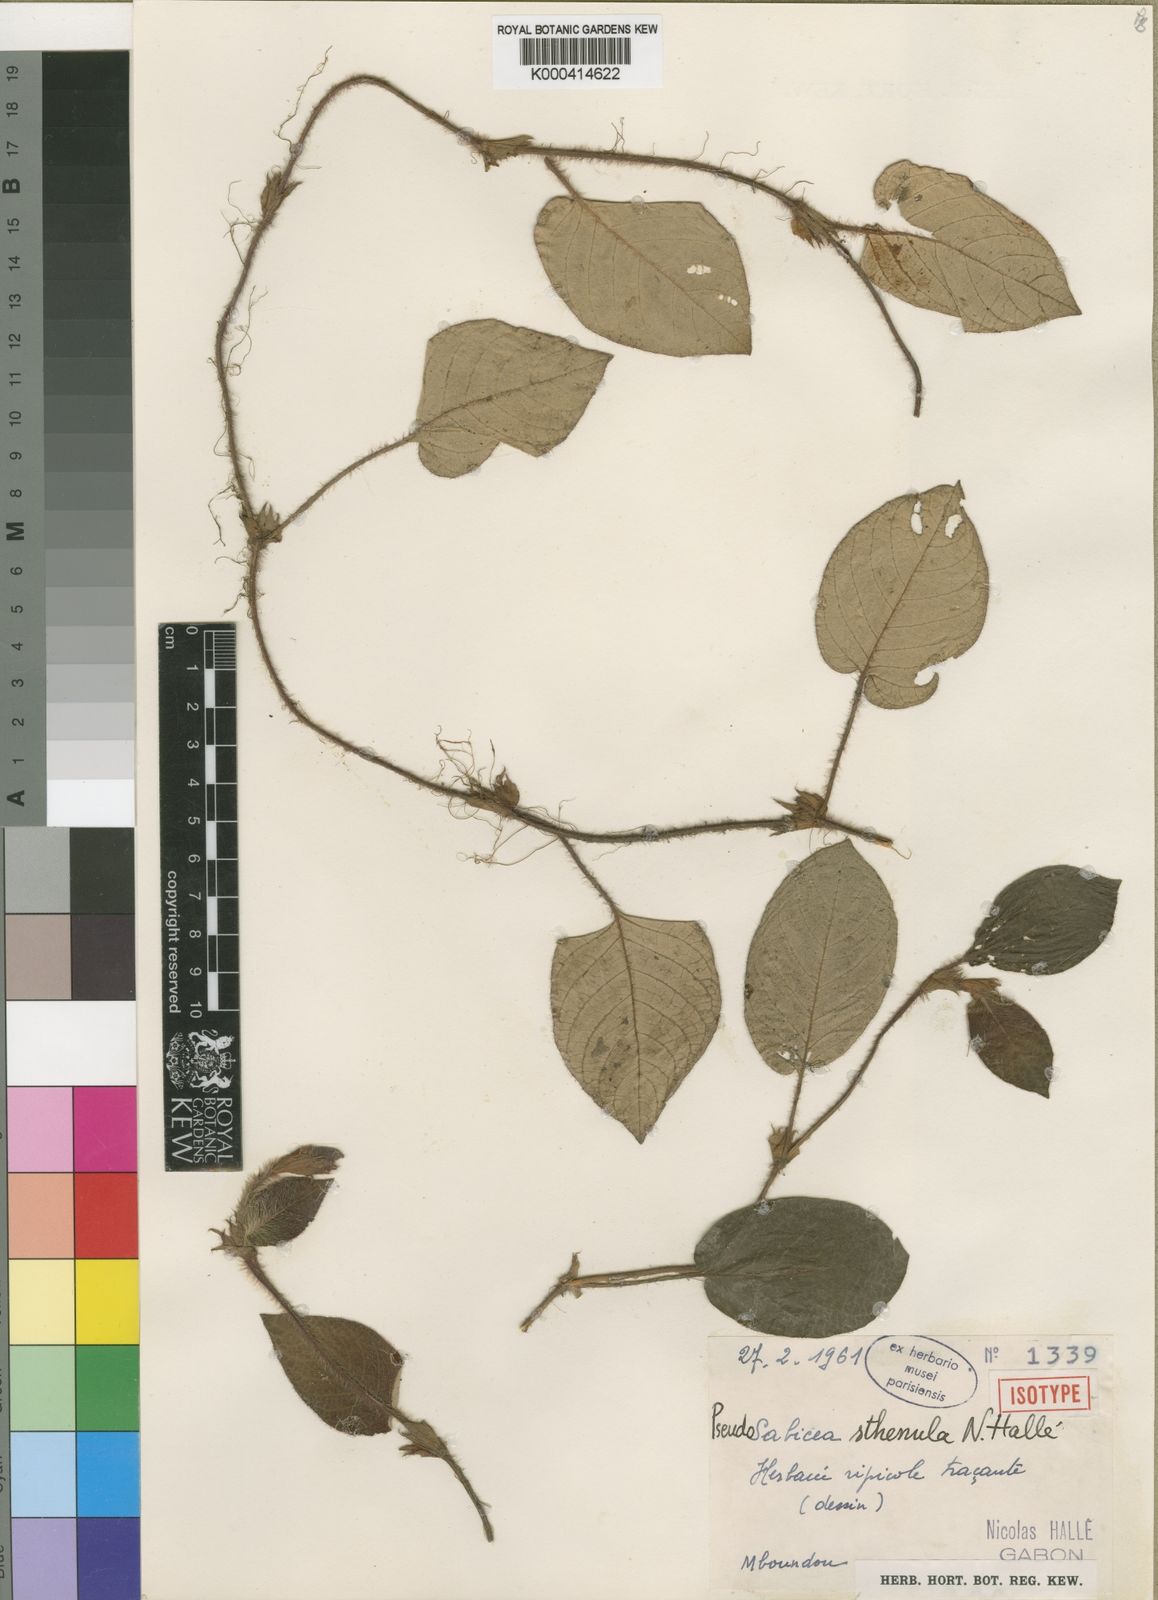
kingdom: Plantae
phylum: Tracheophyta
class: Magnoliopsida
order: Gentianales
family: Rubiaceae
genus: Sabicea
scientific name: Sabicea
